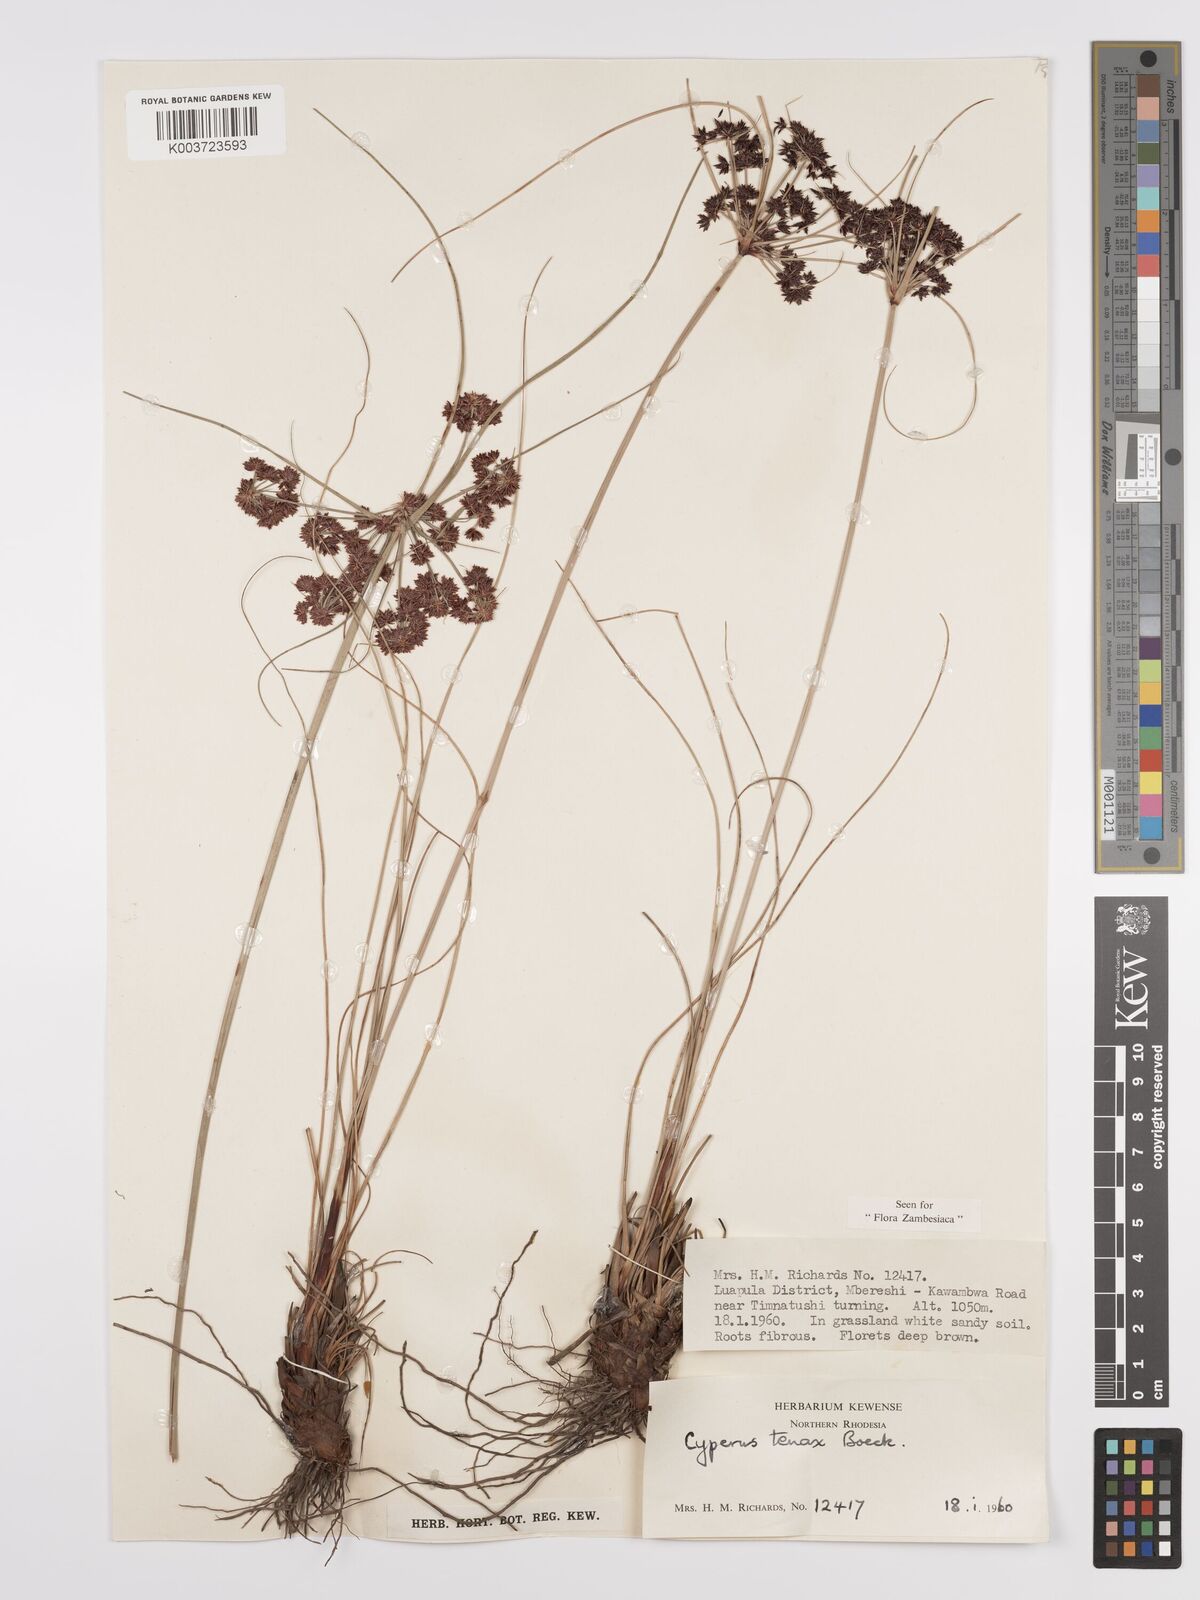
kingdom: Plantae
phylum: Tracheophyta
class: Liliopsida
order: Poales
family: Cyperaceae
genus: Cyperus
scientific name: Cyperus tenax
